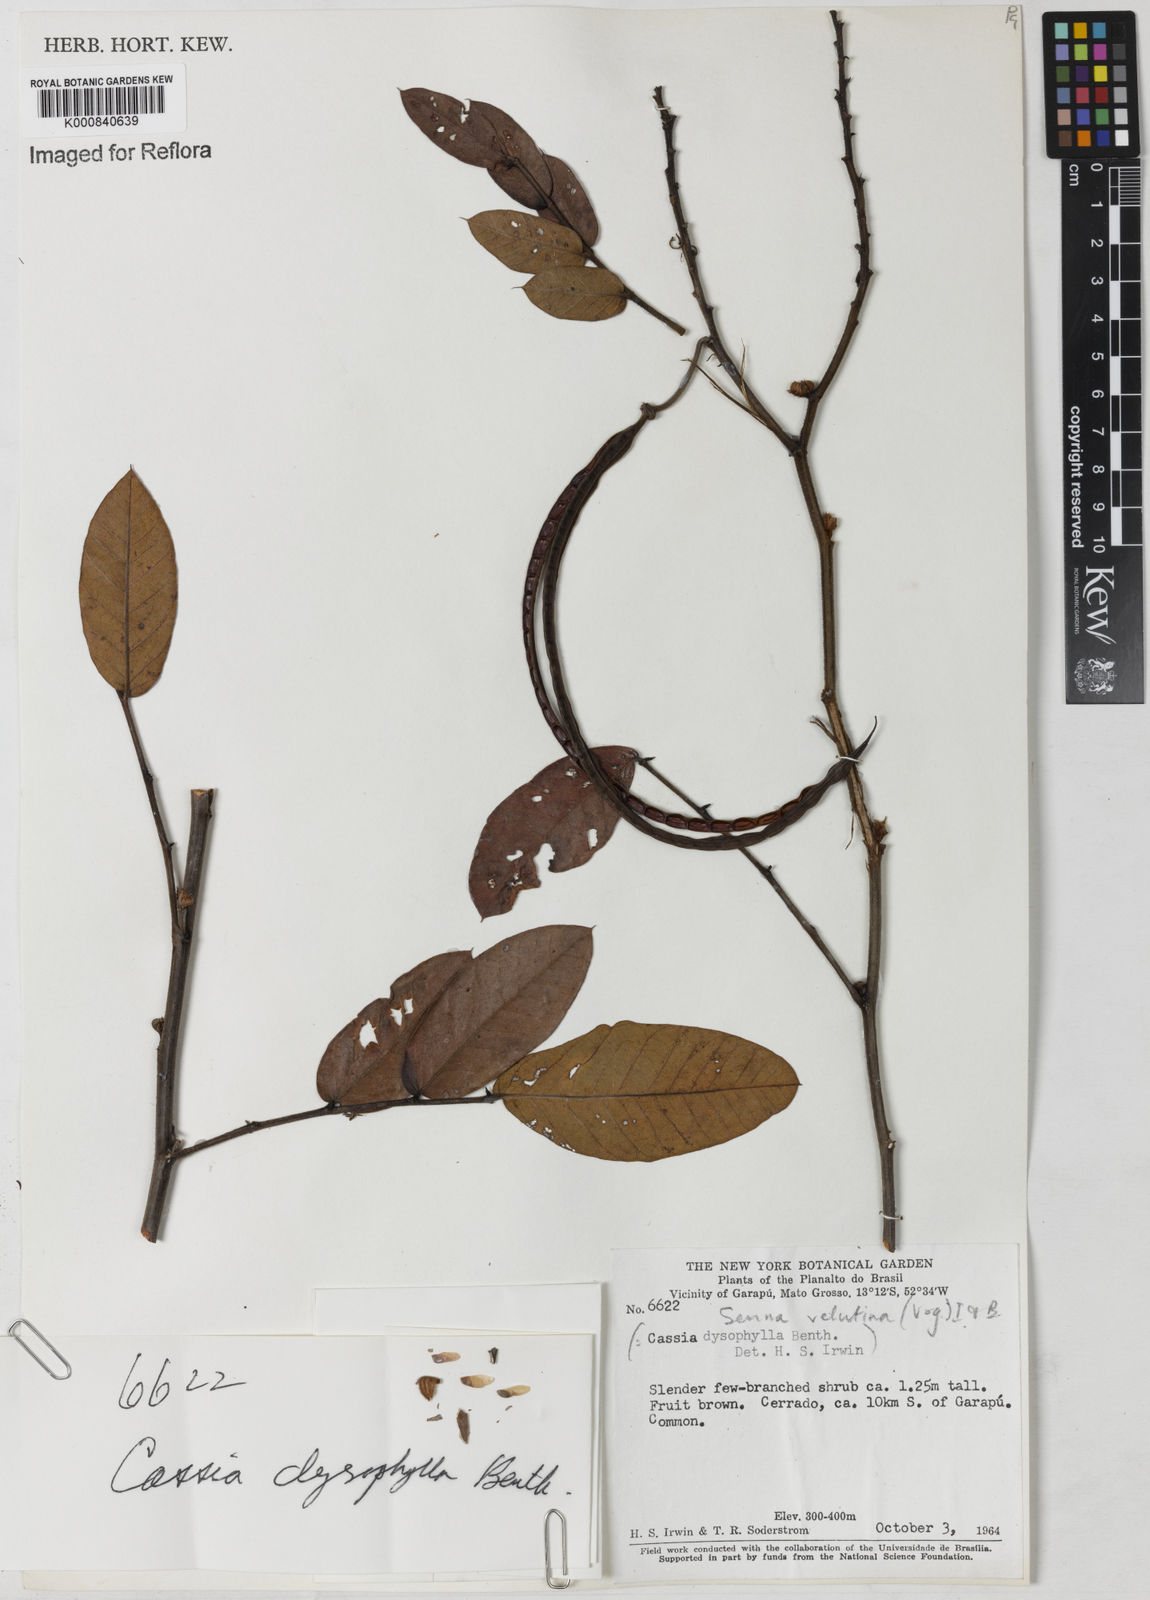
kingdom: Plantae
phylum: Tracheophyta
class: Magnoliopsida
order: Fabales
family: Fabaceae
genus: Senna
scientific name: Senna velutina
